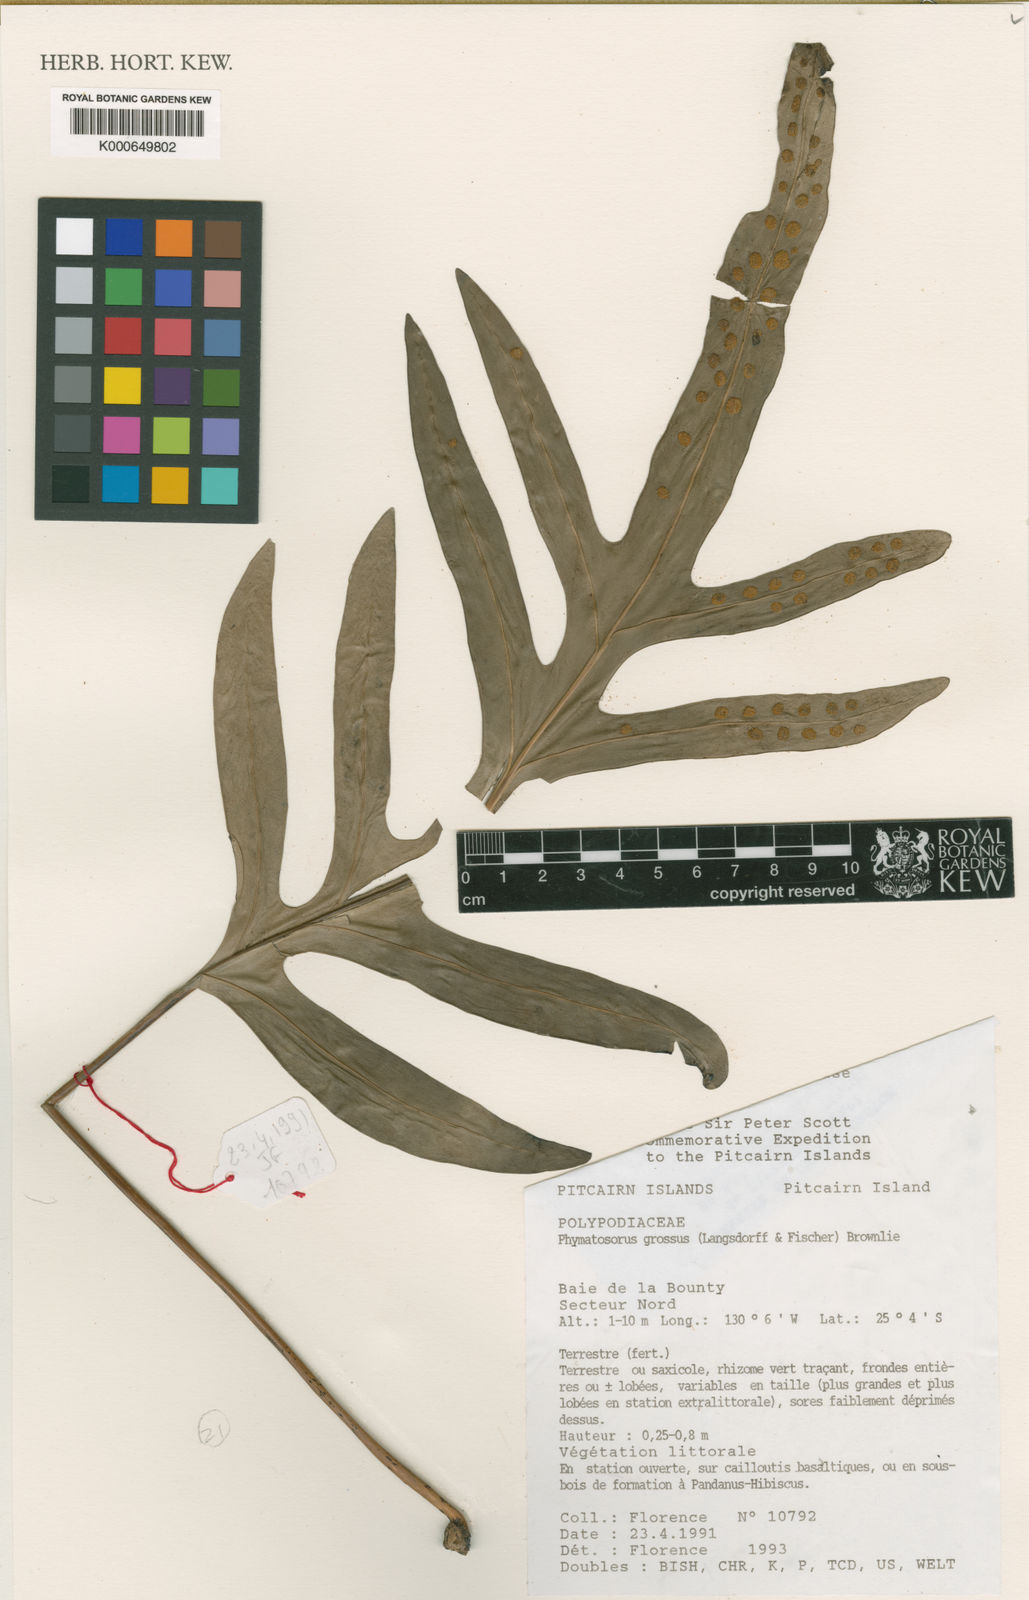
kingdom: Plantae
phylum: Tracheophyta
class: Polypodiopsida
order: Polypodiales
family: Polypodiaceae
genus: Microsorum
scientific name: Microsorum grossum
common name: Musk fern
